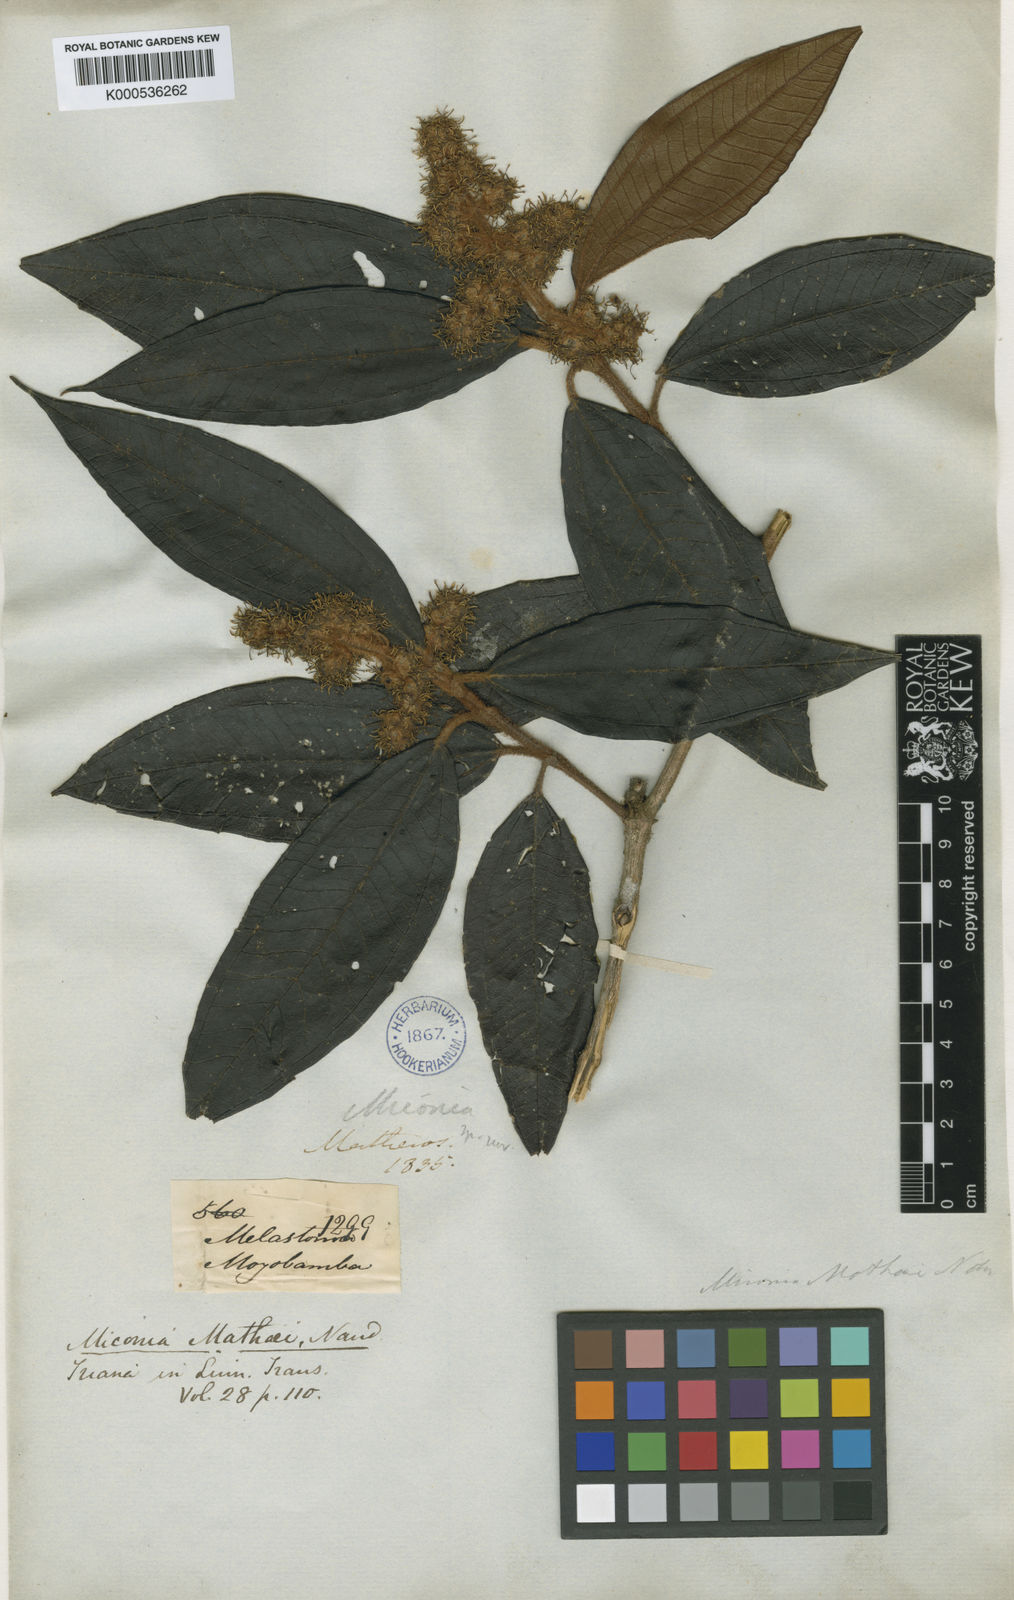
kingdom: Plantae
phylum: Tracheophyta
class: Magnoliopsida
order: Myrtales
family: Melastomataceae
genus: Miconia
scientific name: Miconia matthaei
